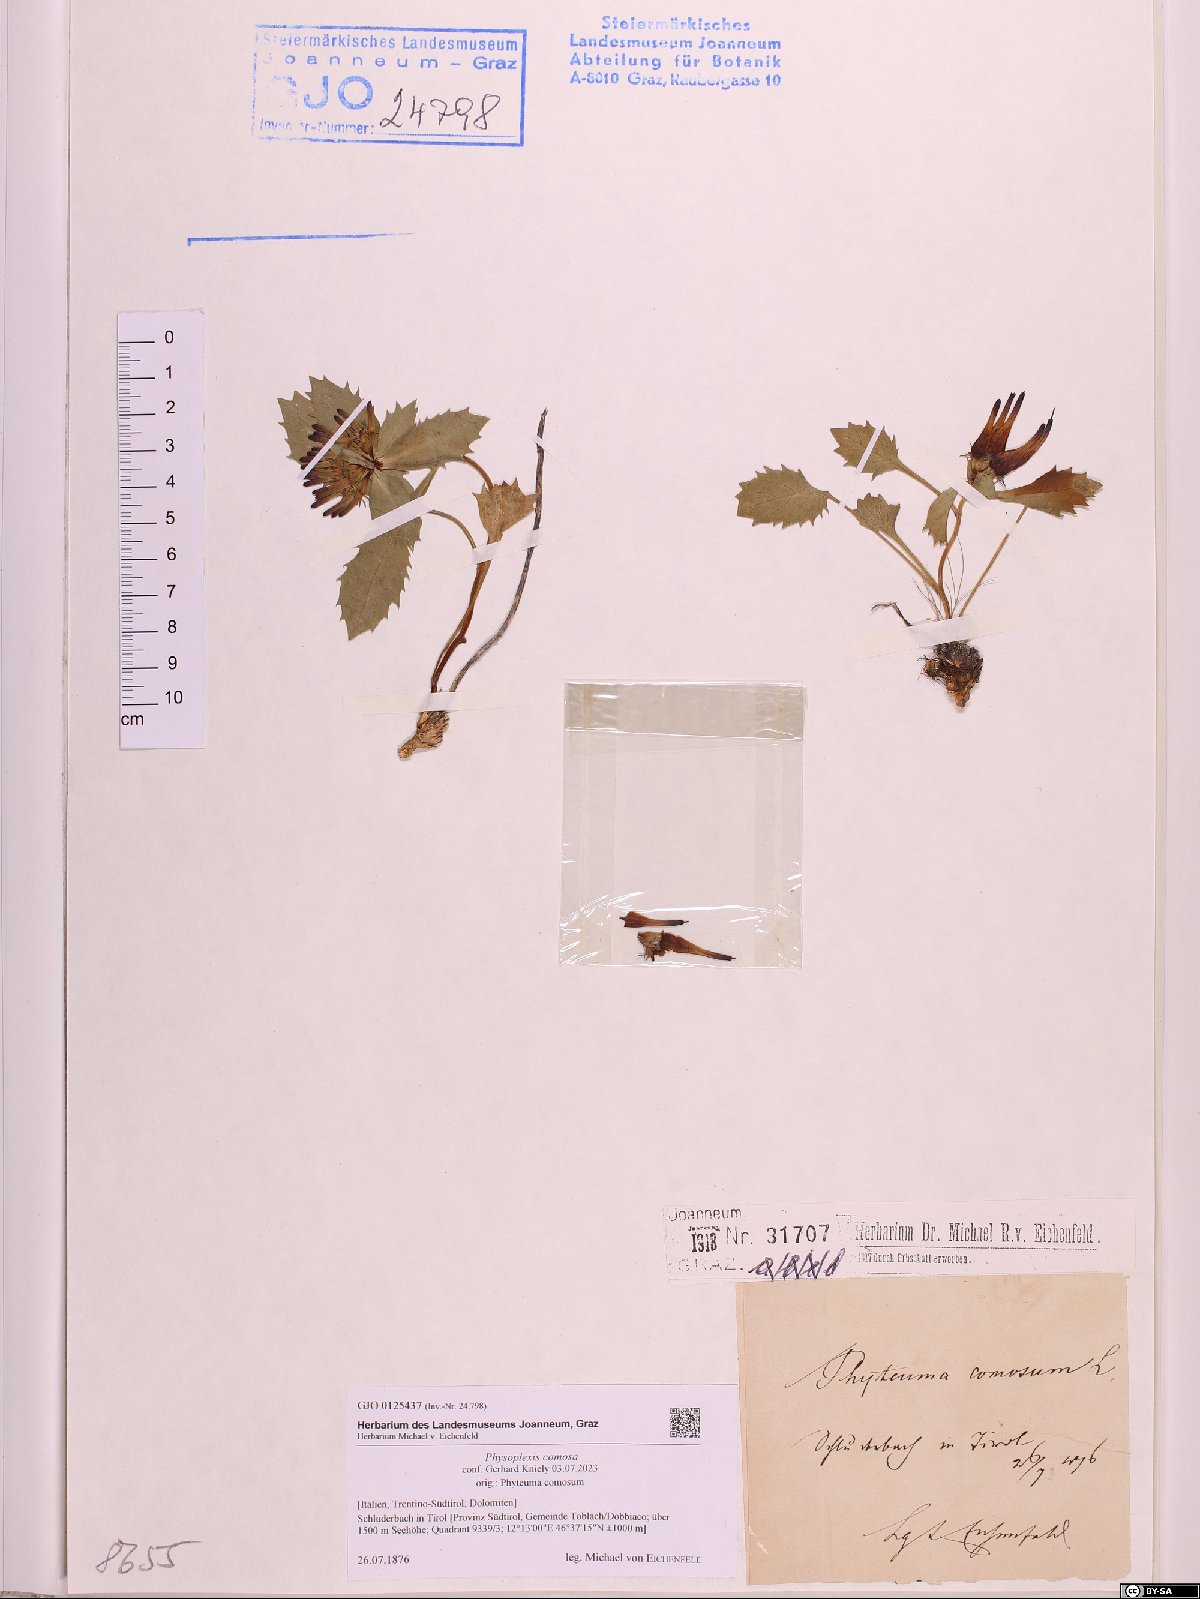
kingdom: Plantae
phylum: Tracheophyta
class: Magnoliopsida
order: Asterales
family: Campanulaceae
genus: Physoplexis
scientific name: Physoplexis comosa
